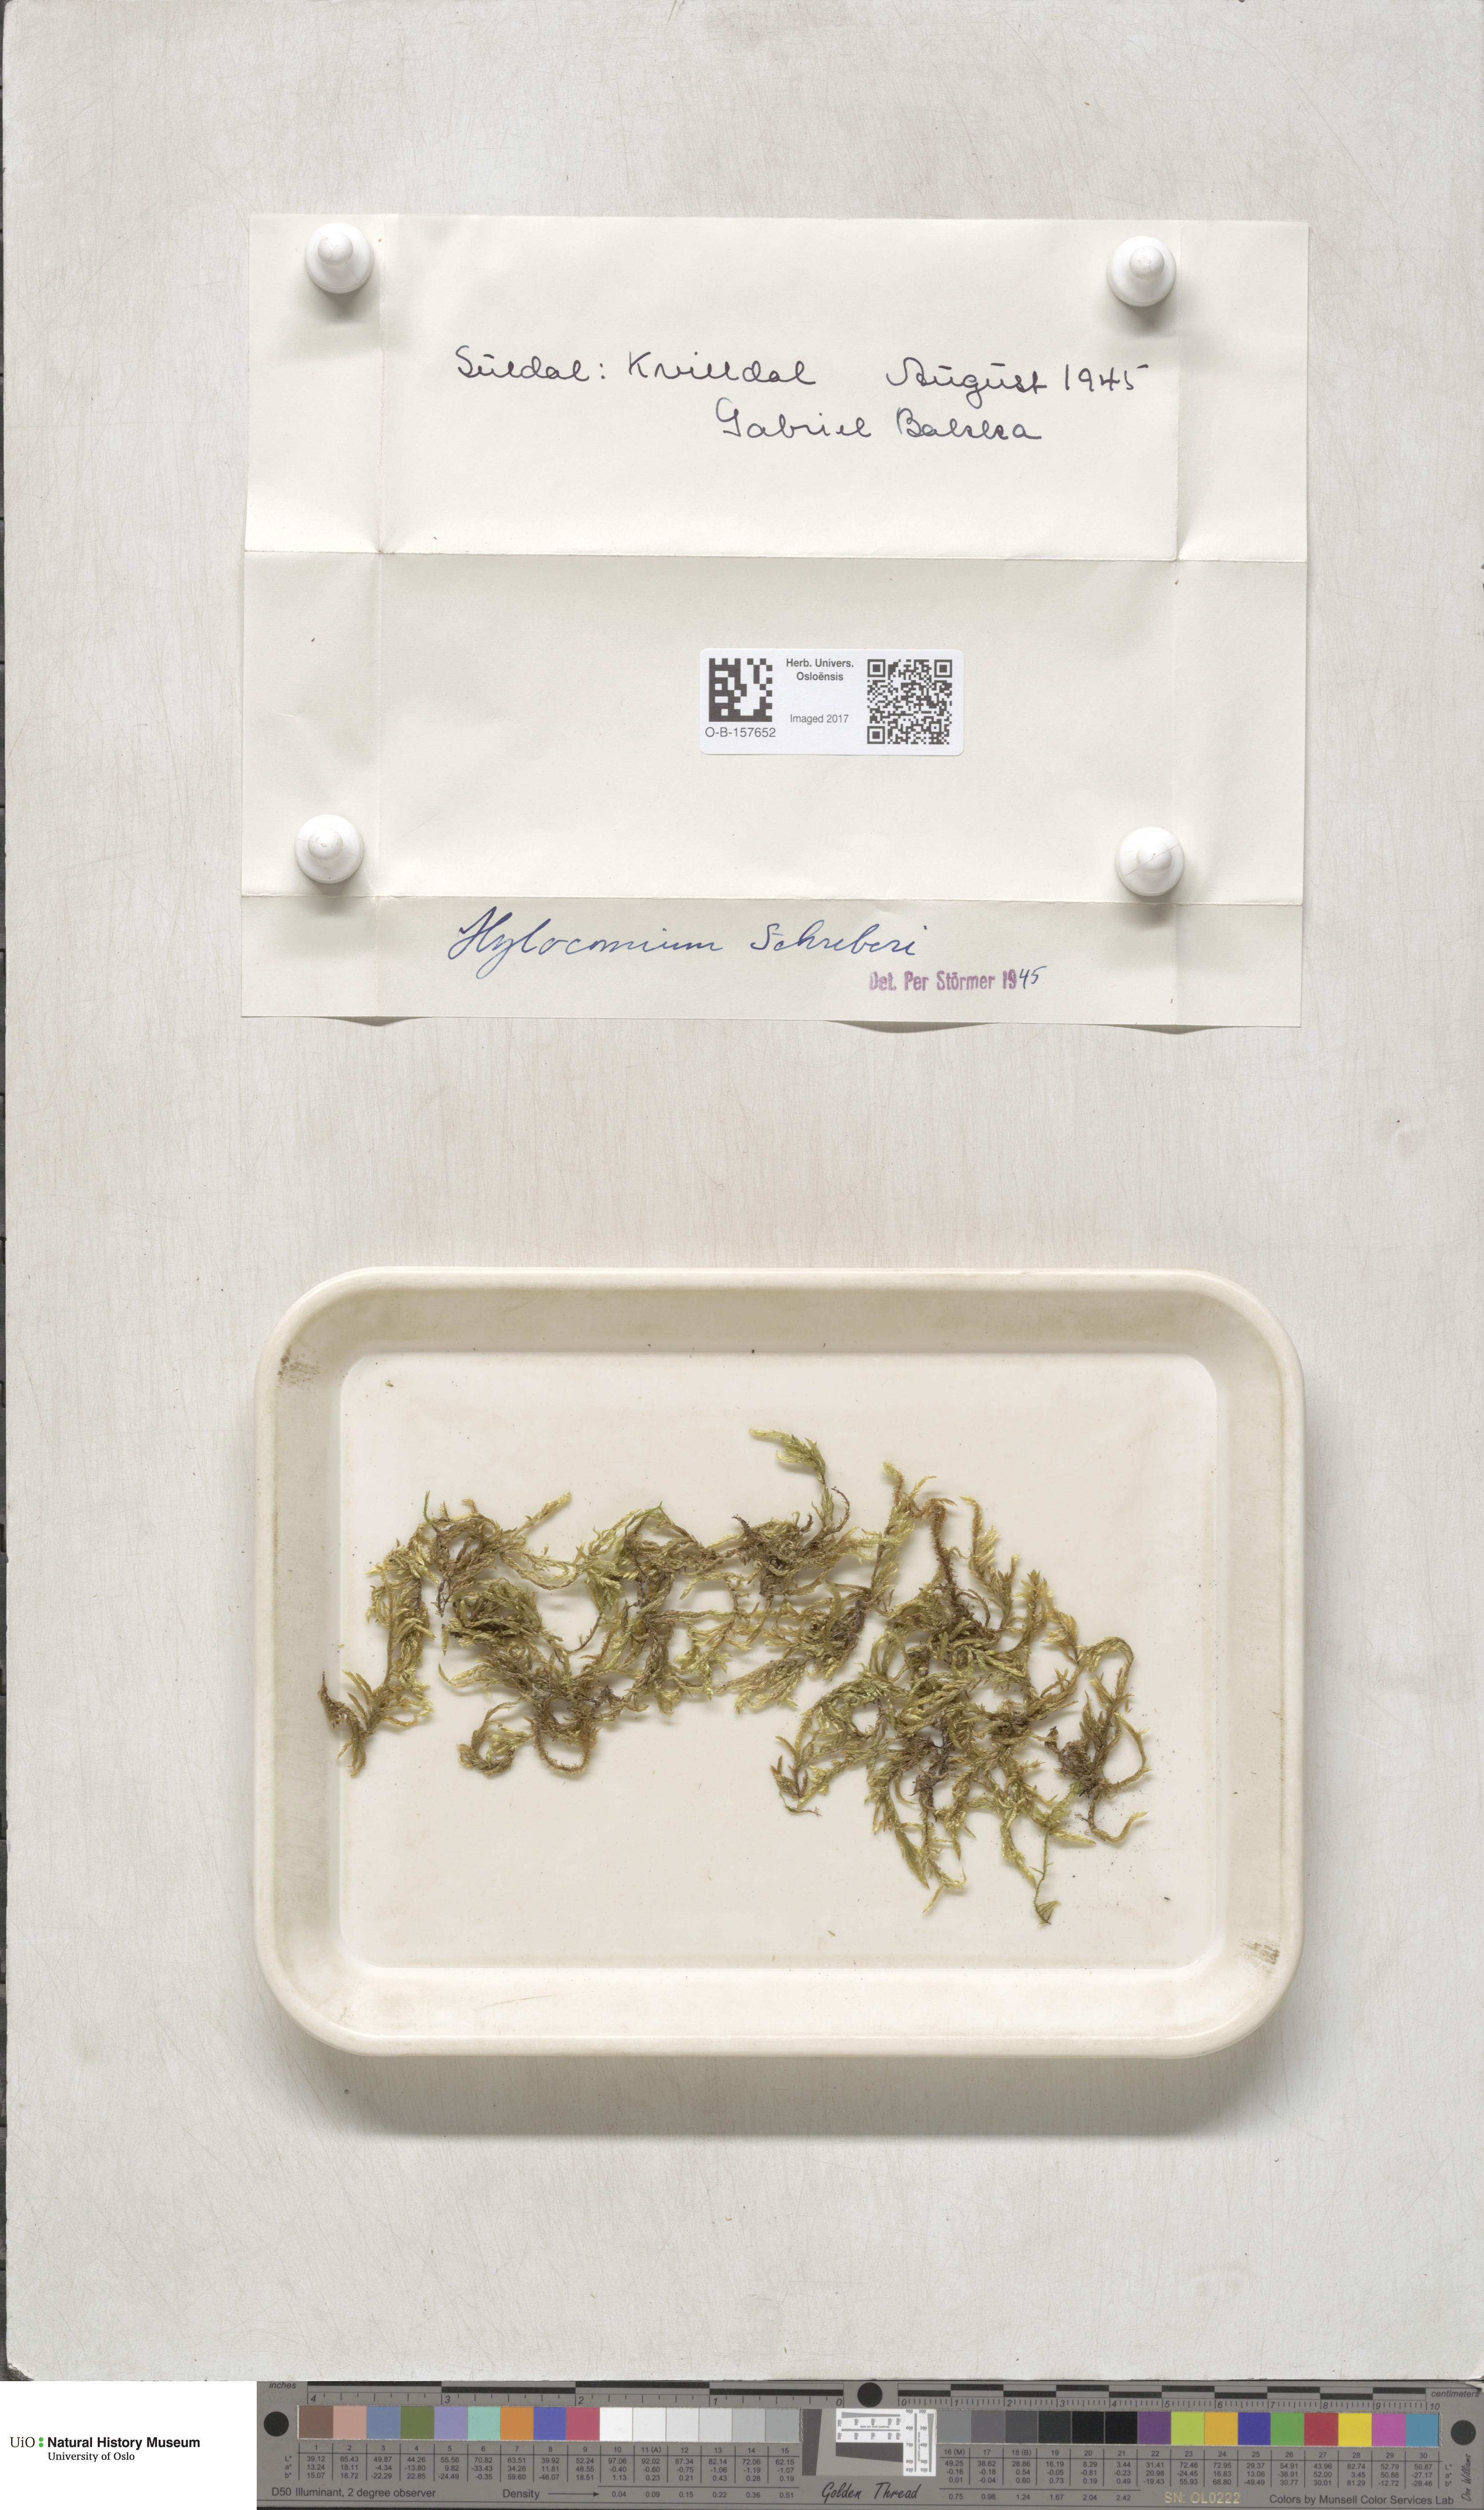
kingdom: Plantae
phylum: Bryophyta
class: Bryopsida
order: Hypnales
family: Hylocomiaceae
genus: Pleurozium
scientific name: Pleurozium schreberi
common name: Red-stemmed feather moss
